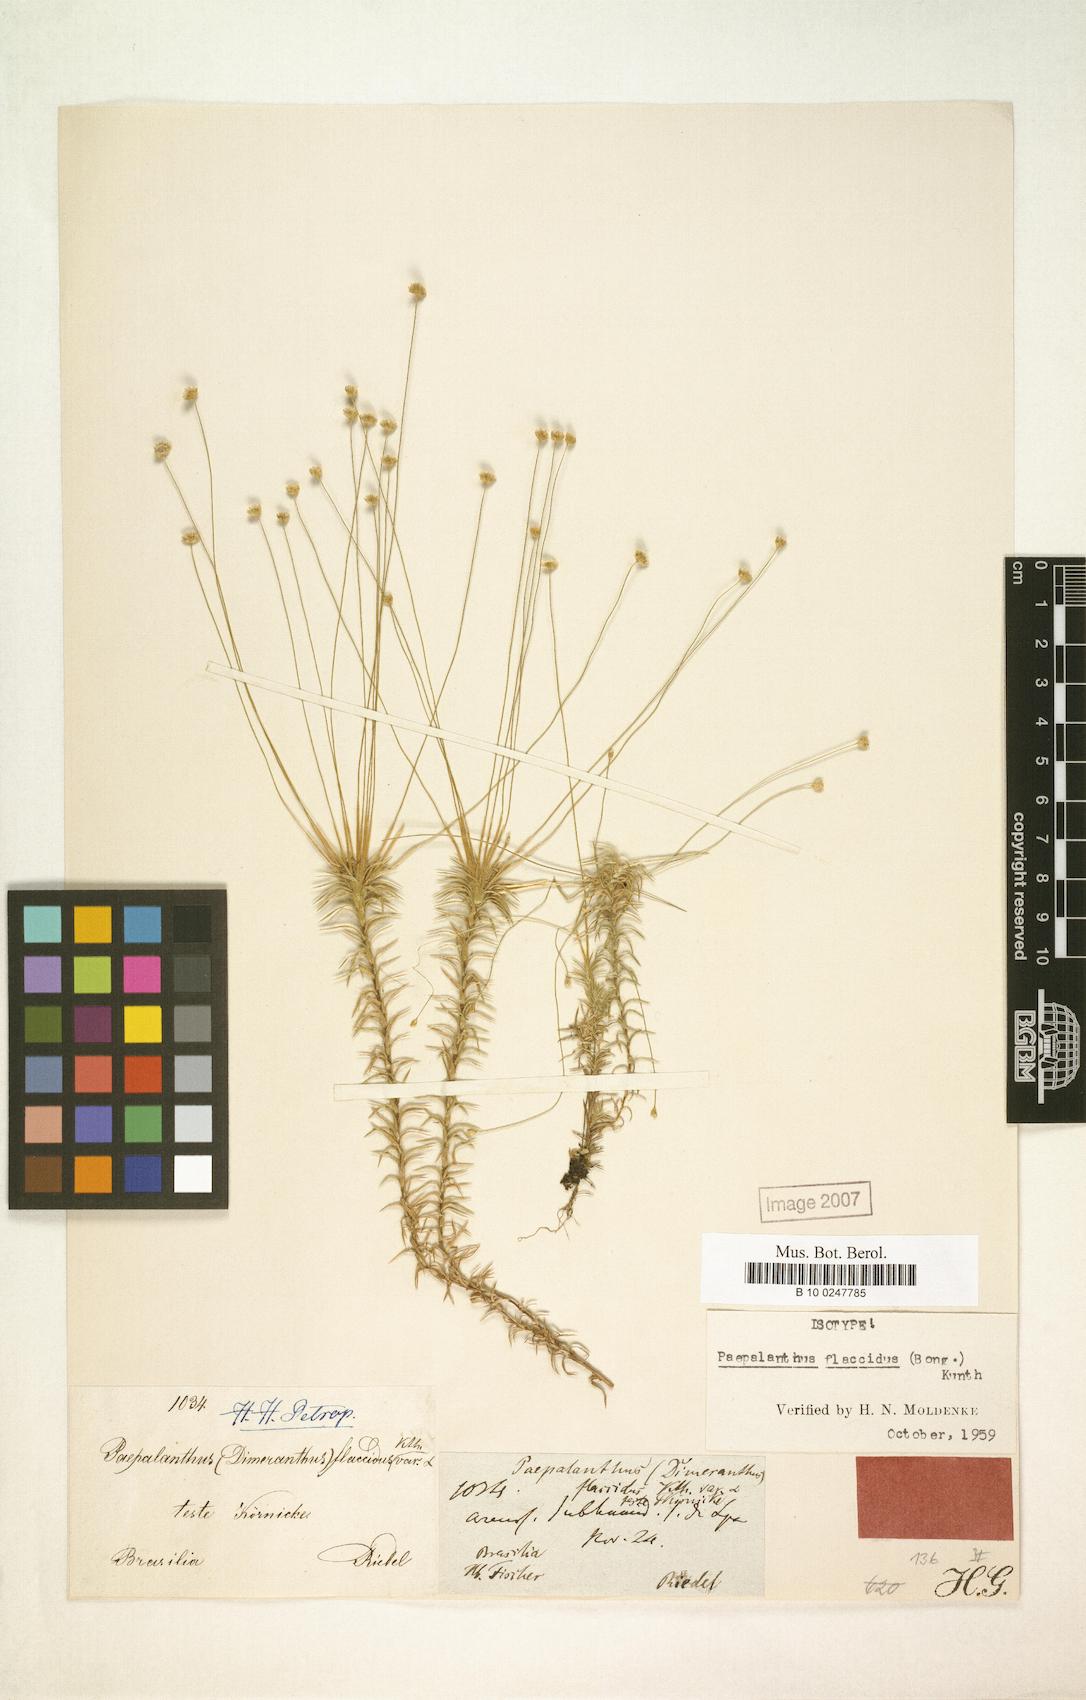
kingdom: Plantae
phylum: Tracheophyta
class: Liliopsida
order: Poales
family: Eriocaulaceae
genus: Paepalanthus
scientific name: Paepalanthus flaccidus
